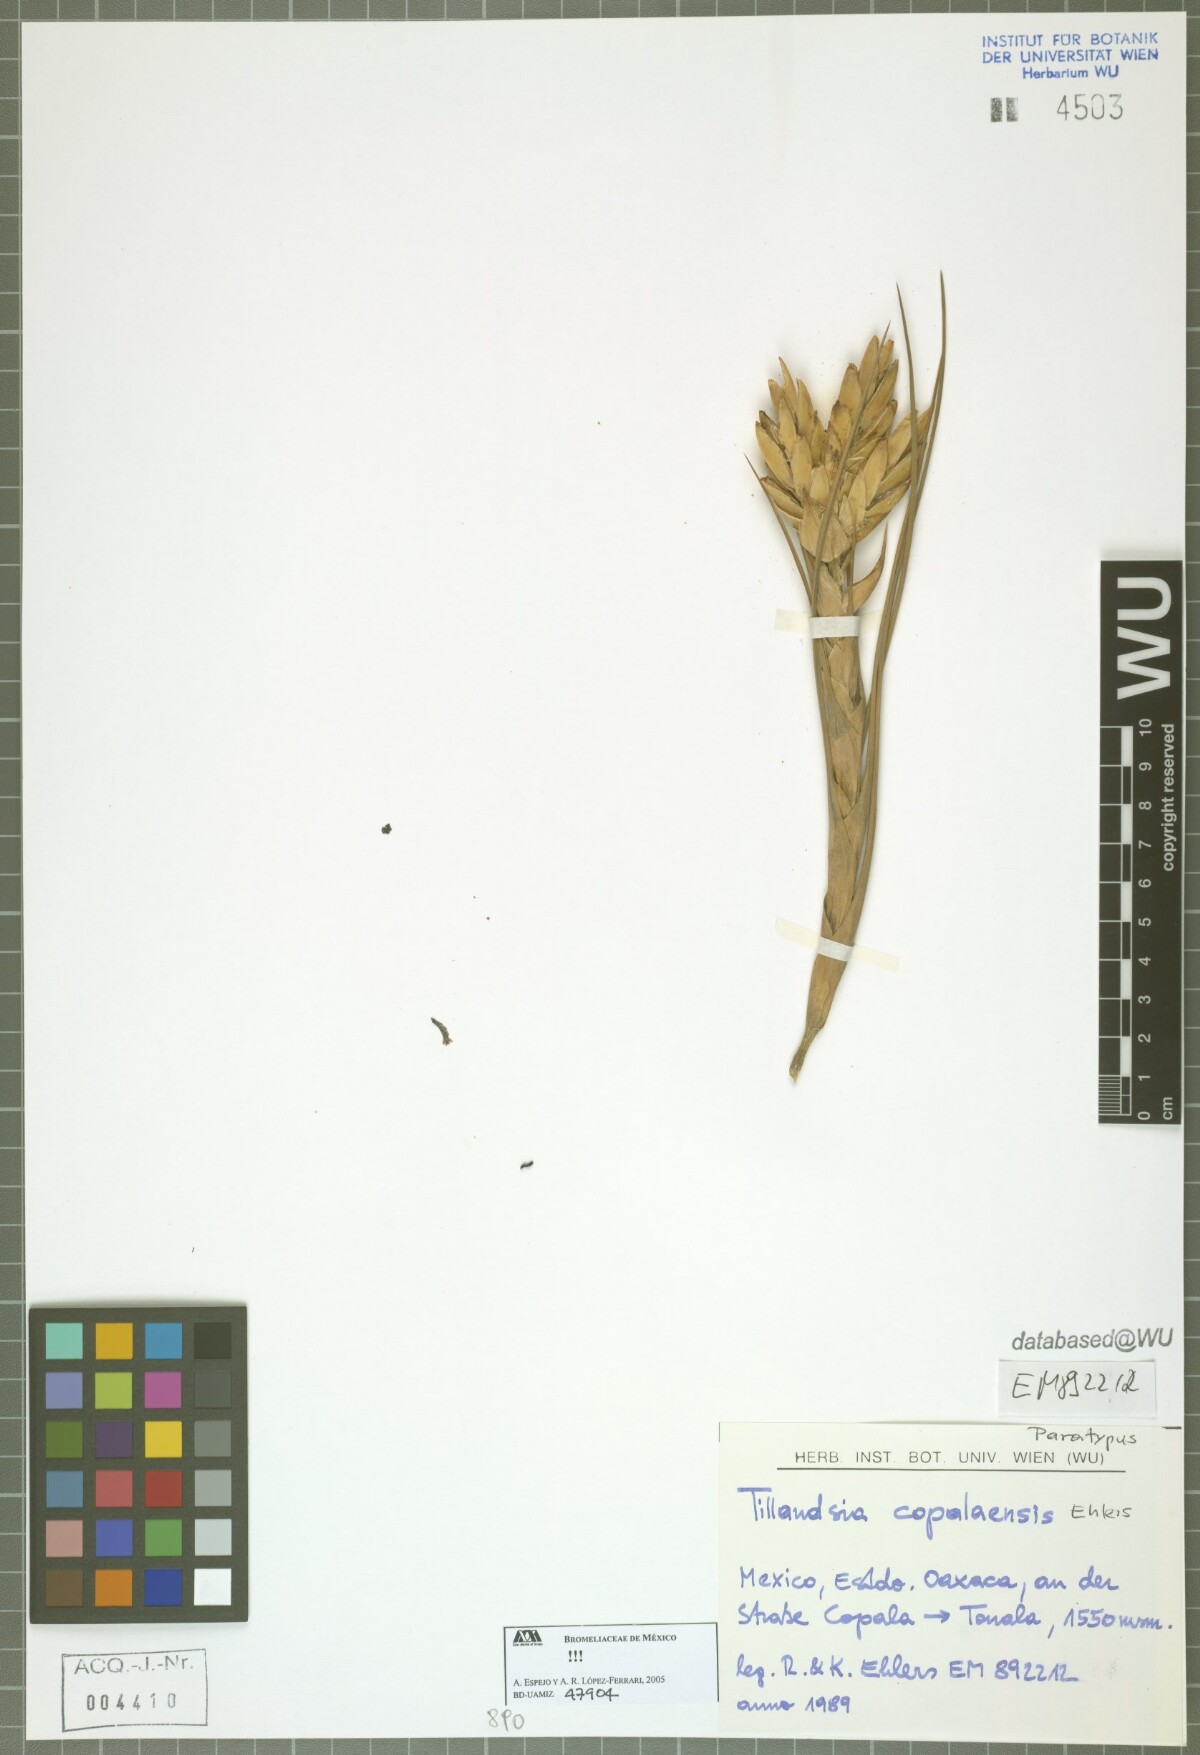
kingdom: Plantae
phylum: Tracheophyta
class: Liliopsida
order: Poales
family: Bromeliaceae
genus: Tillandsia
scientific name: Tillandsia copalaensis
